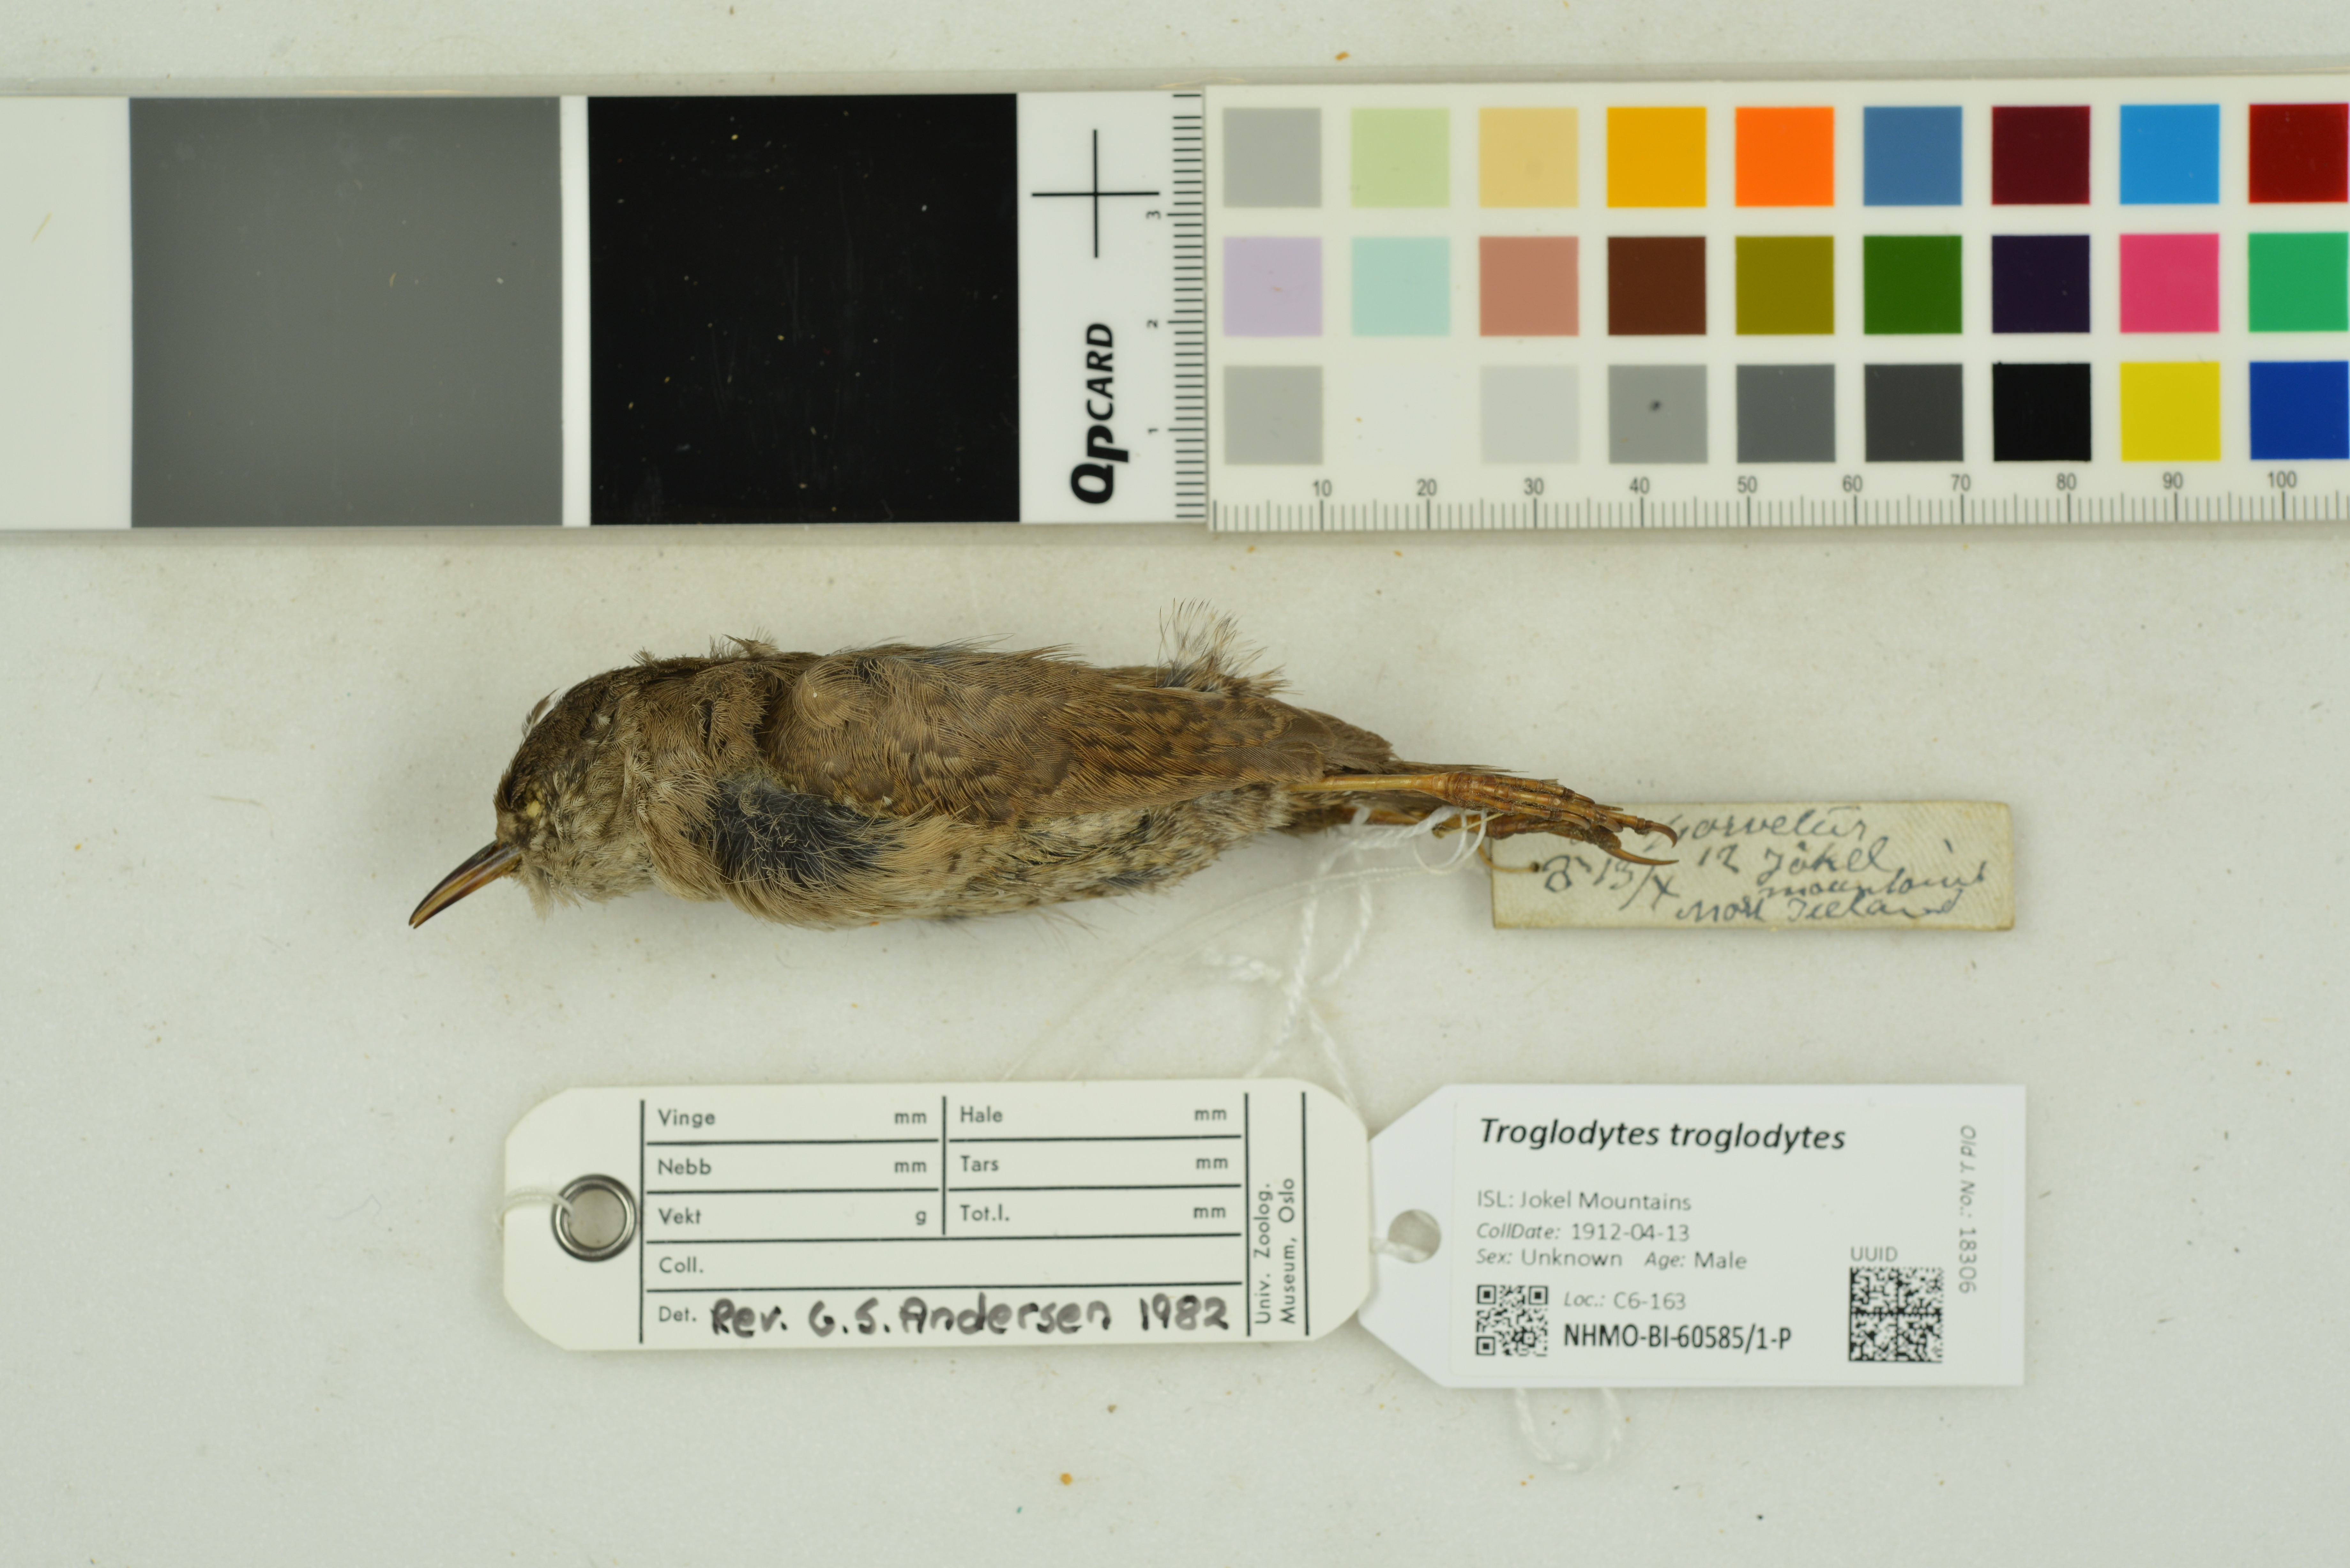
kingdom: Animalia
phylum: Chordata
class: Aves
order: Passeriformes
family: Troglodytidae
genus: Troglodytes
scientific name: Troglodytes troglodytes
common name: Eurasian wren
